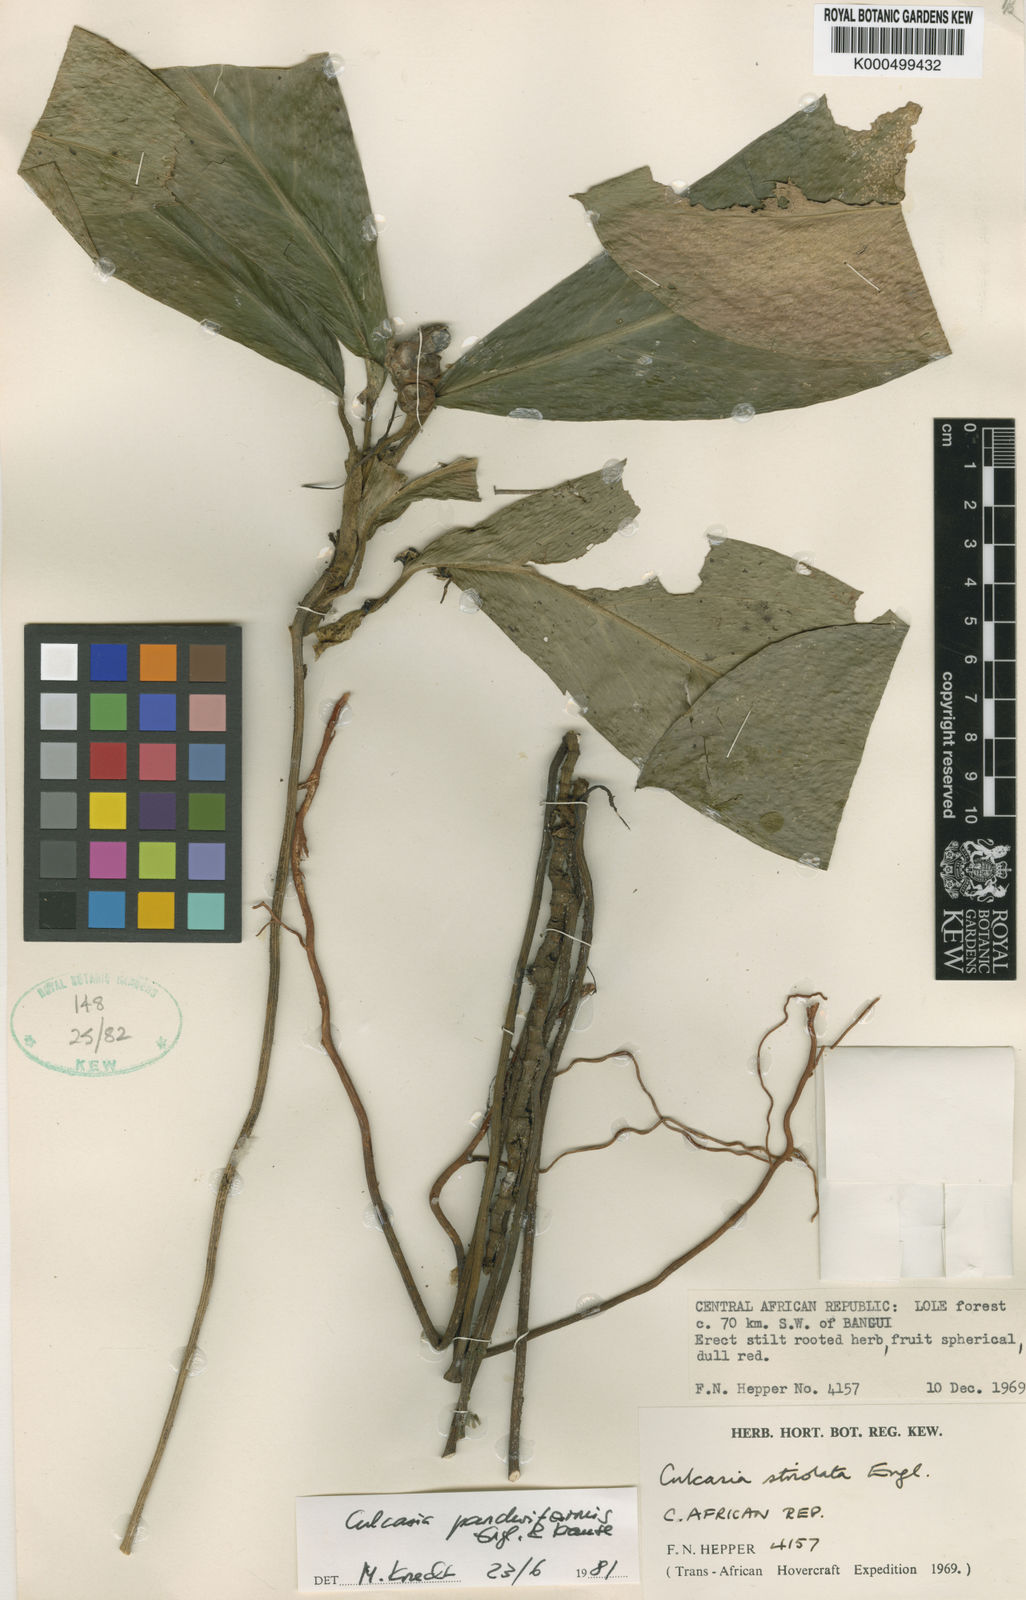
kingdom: Plantae
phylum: Tracheophyta
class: Liliopsida
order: Alismatales
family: Araceae
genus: Culcasia
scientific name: Culcasia panduriformis
